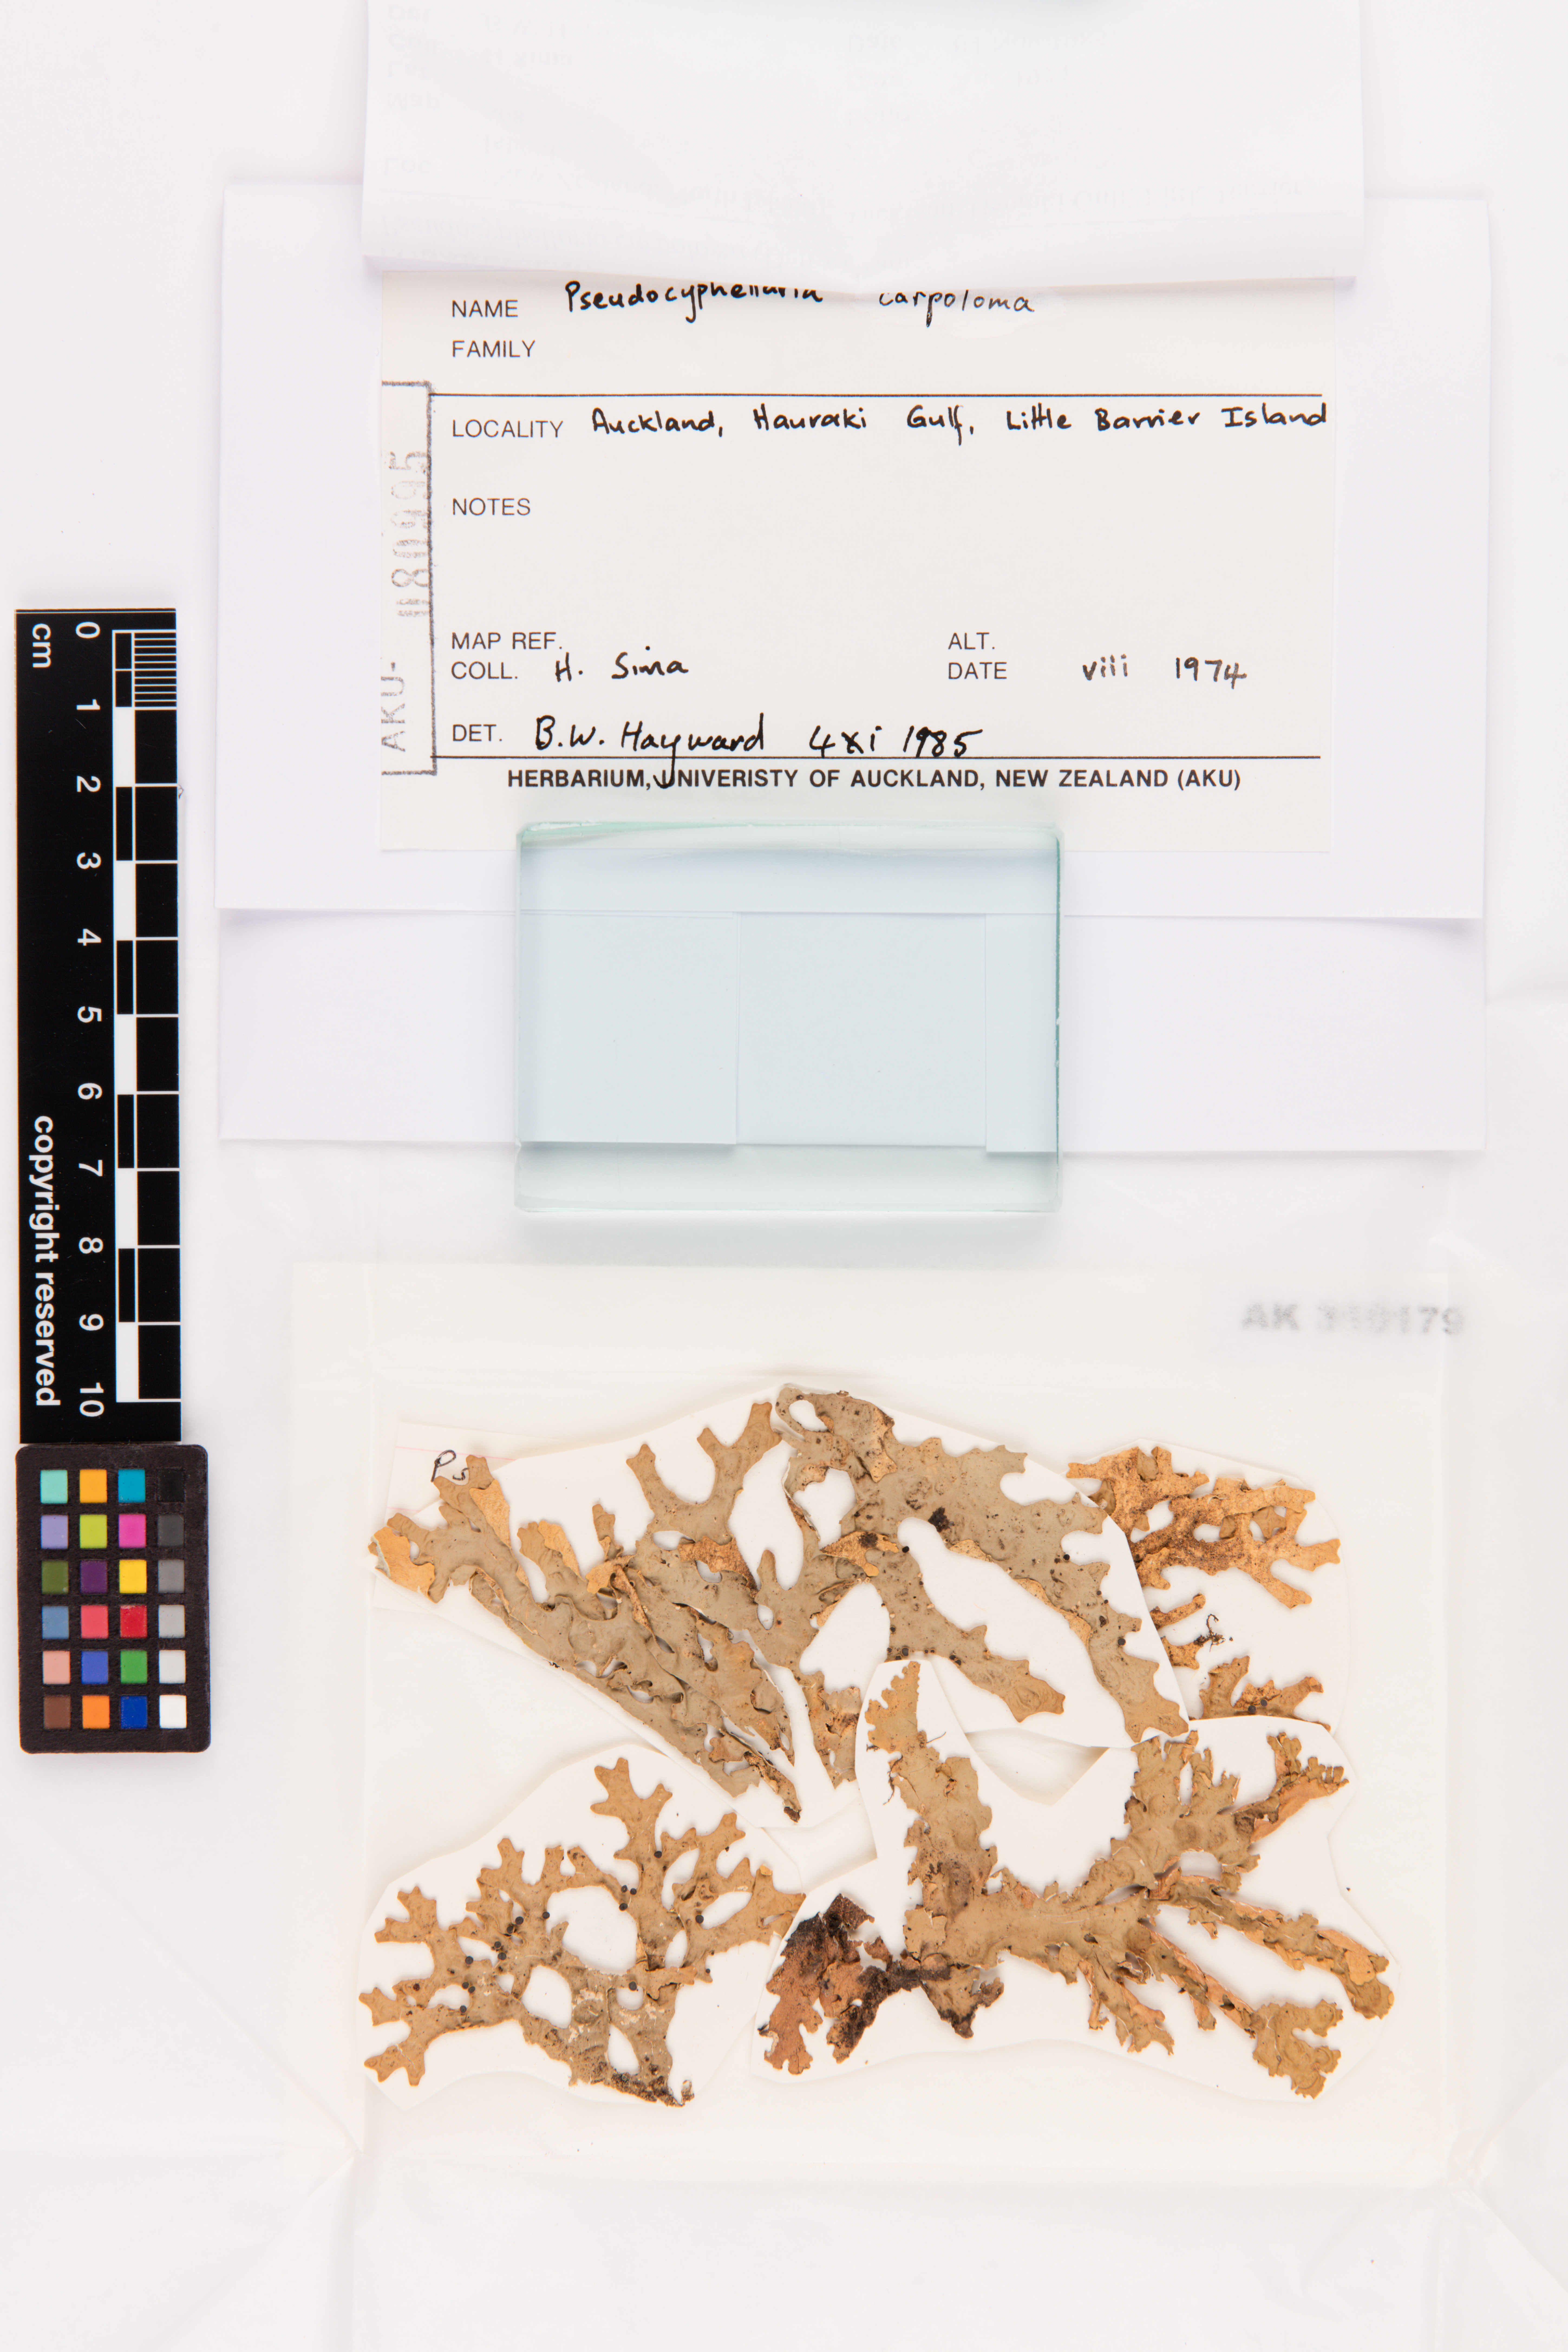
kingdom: Fungi
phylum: Ascomycota
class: Lecanoromycetes
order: Peltigerales
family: Lobariaceae
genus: Pseudocyphellaria
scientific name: Pseudocyphellaria carpoloma
